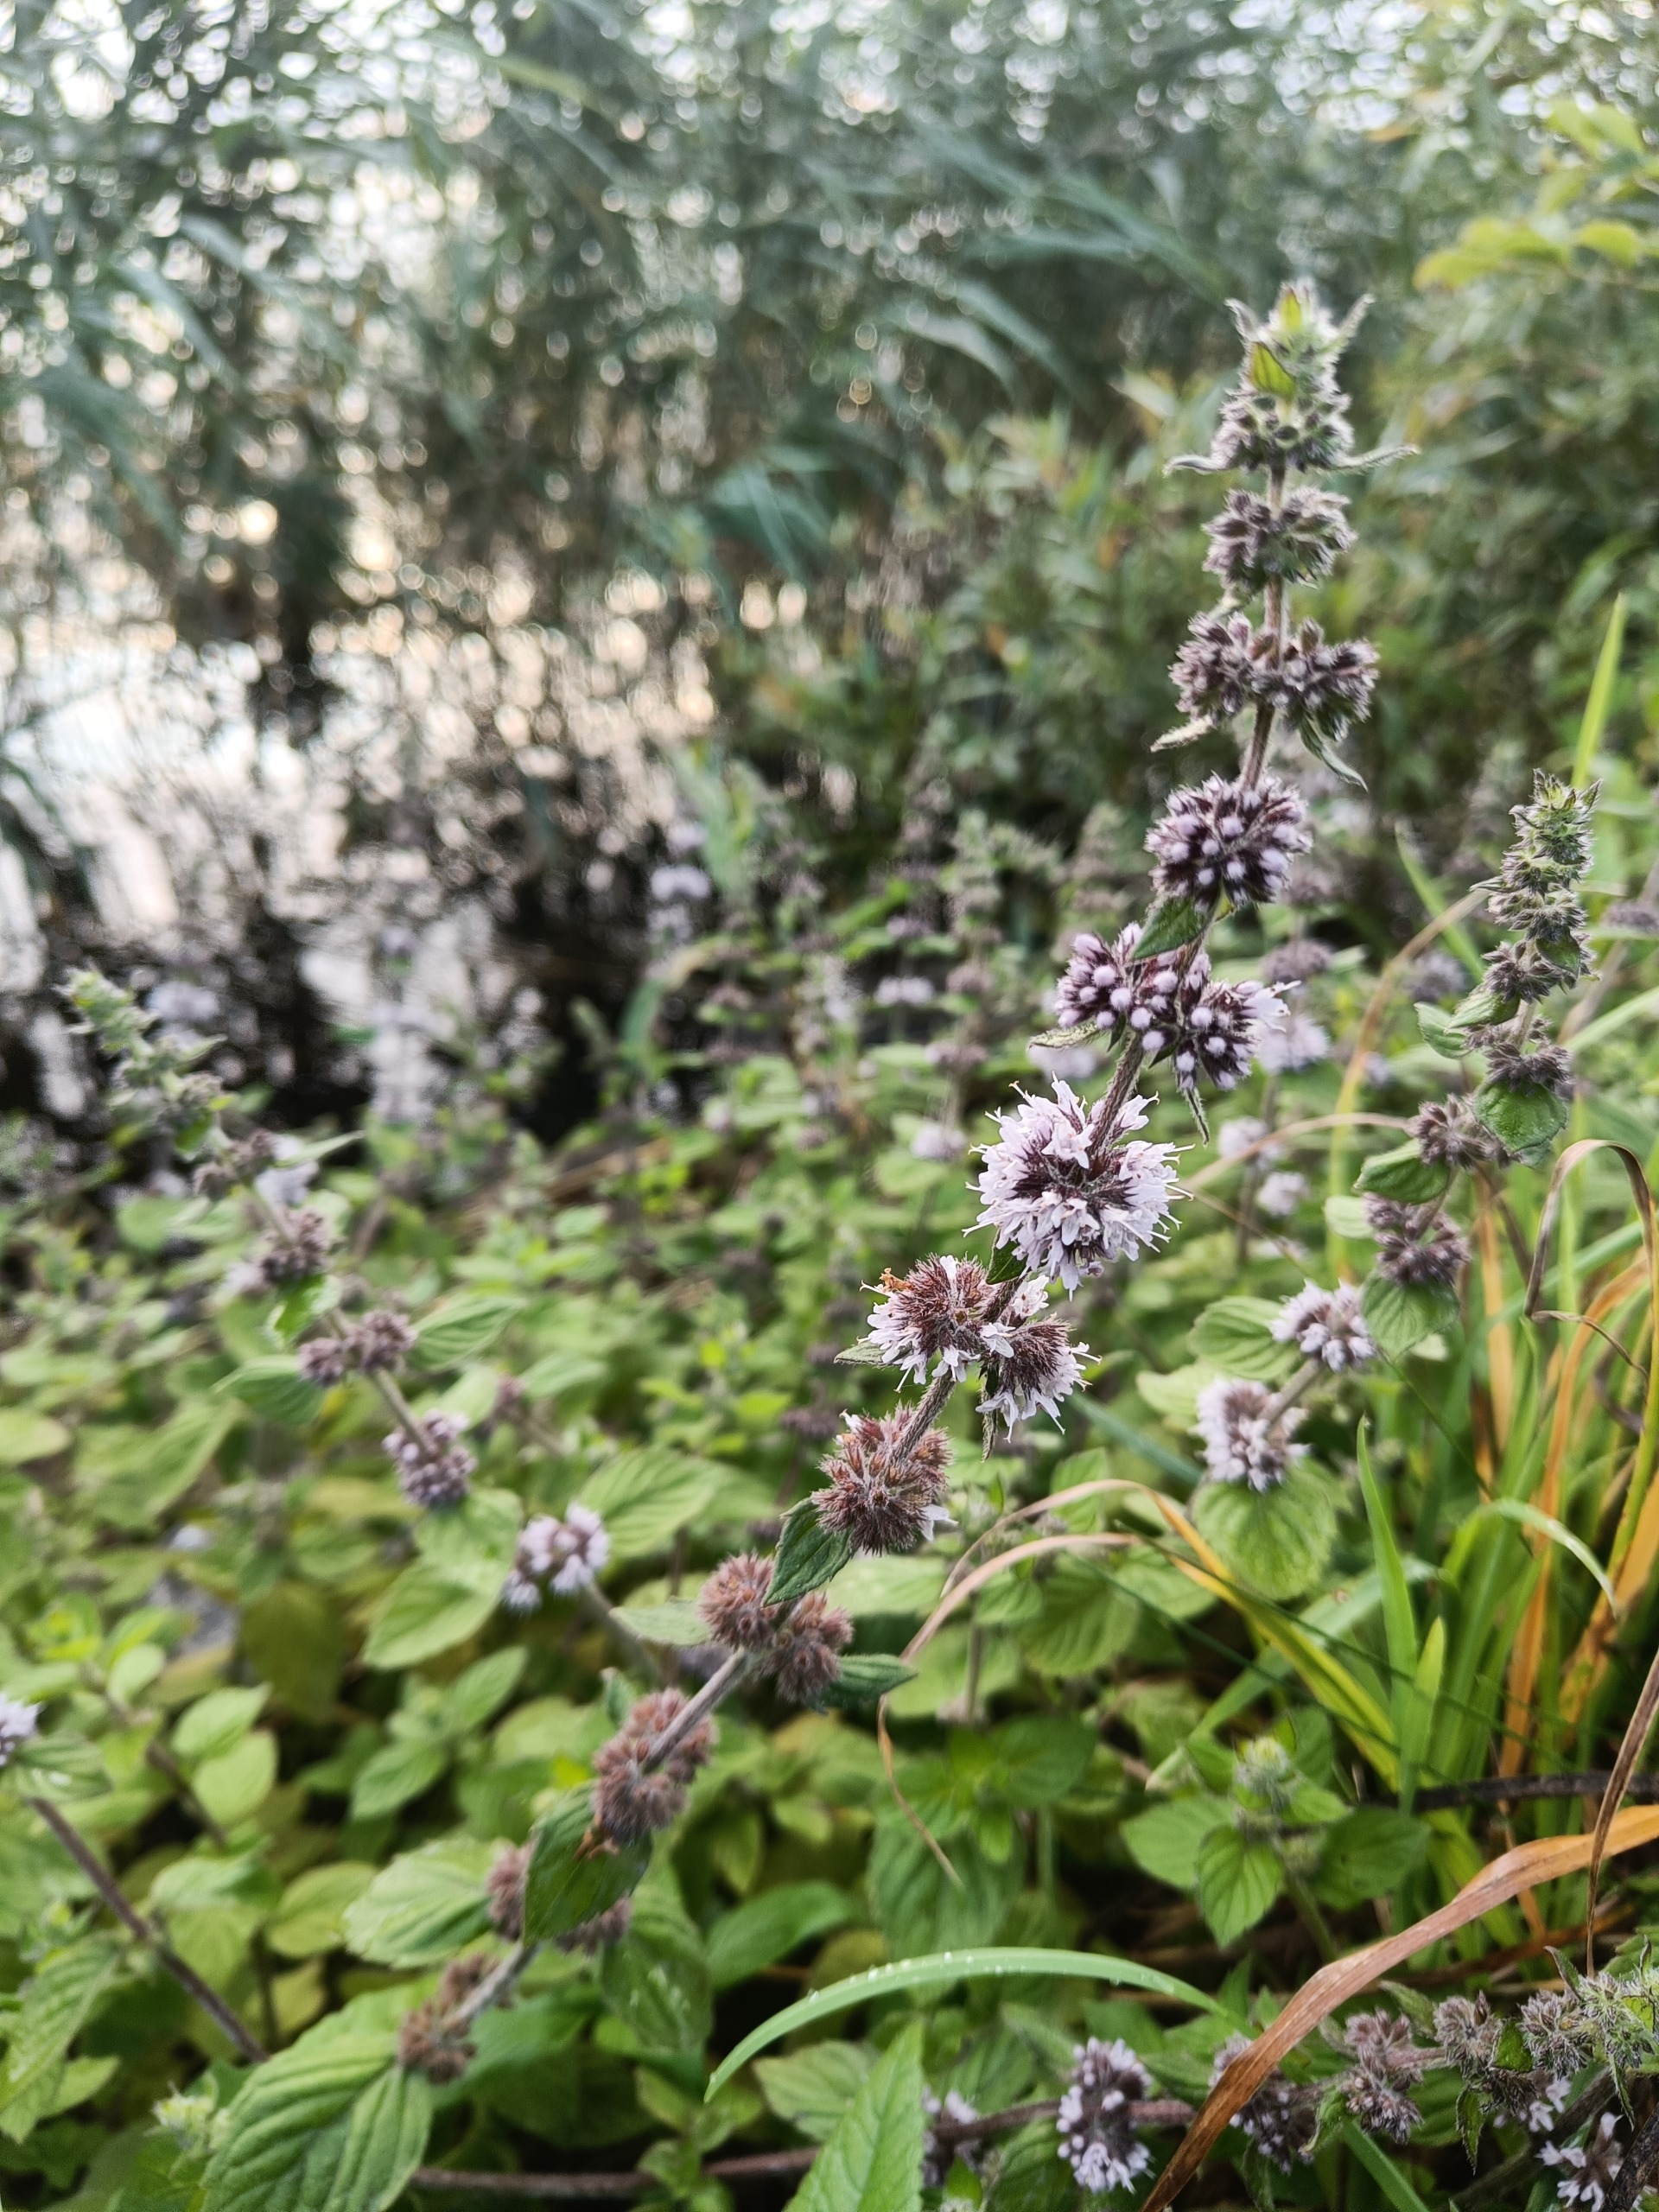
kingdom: Plantae
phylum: Tracheophyta
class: Magnoliopsida
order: Lamiales
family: Lamiaceae
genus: Mentha
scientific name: Mentha verticillata
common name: Krans-mynte
